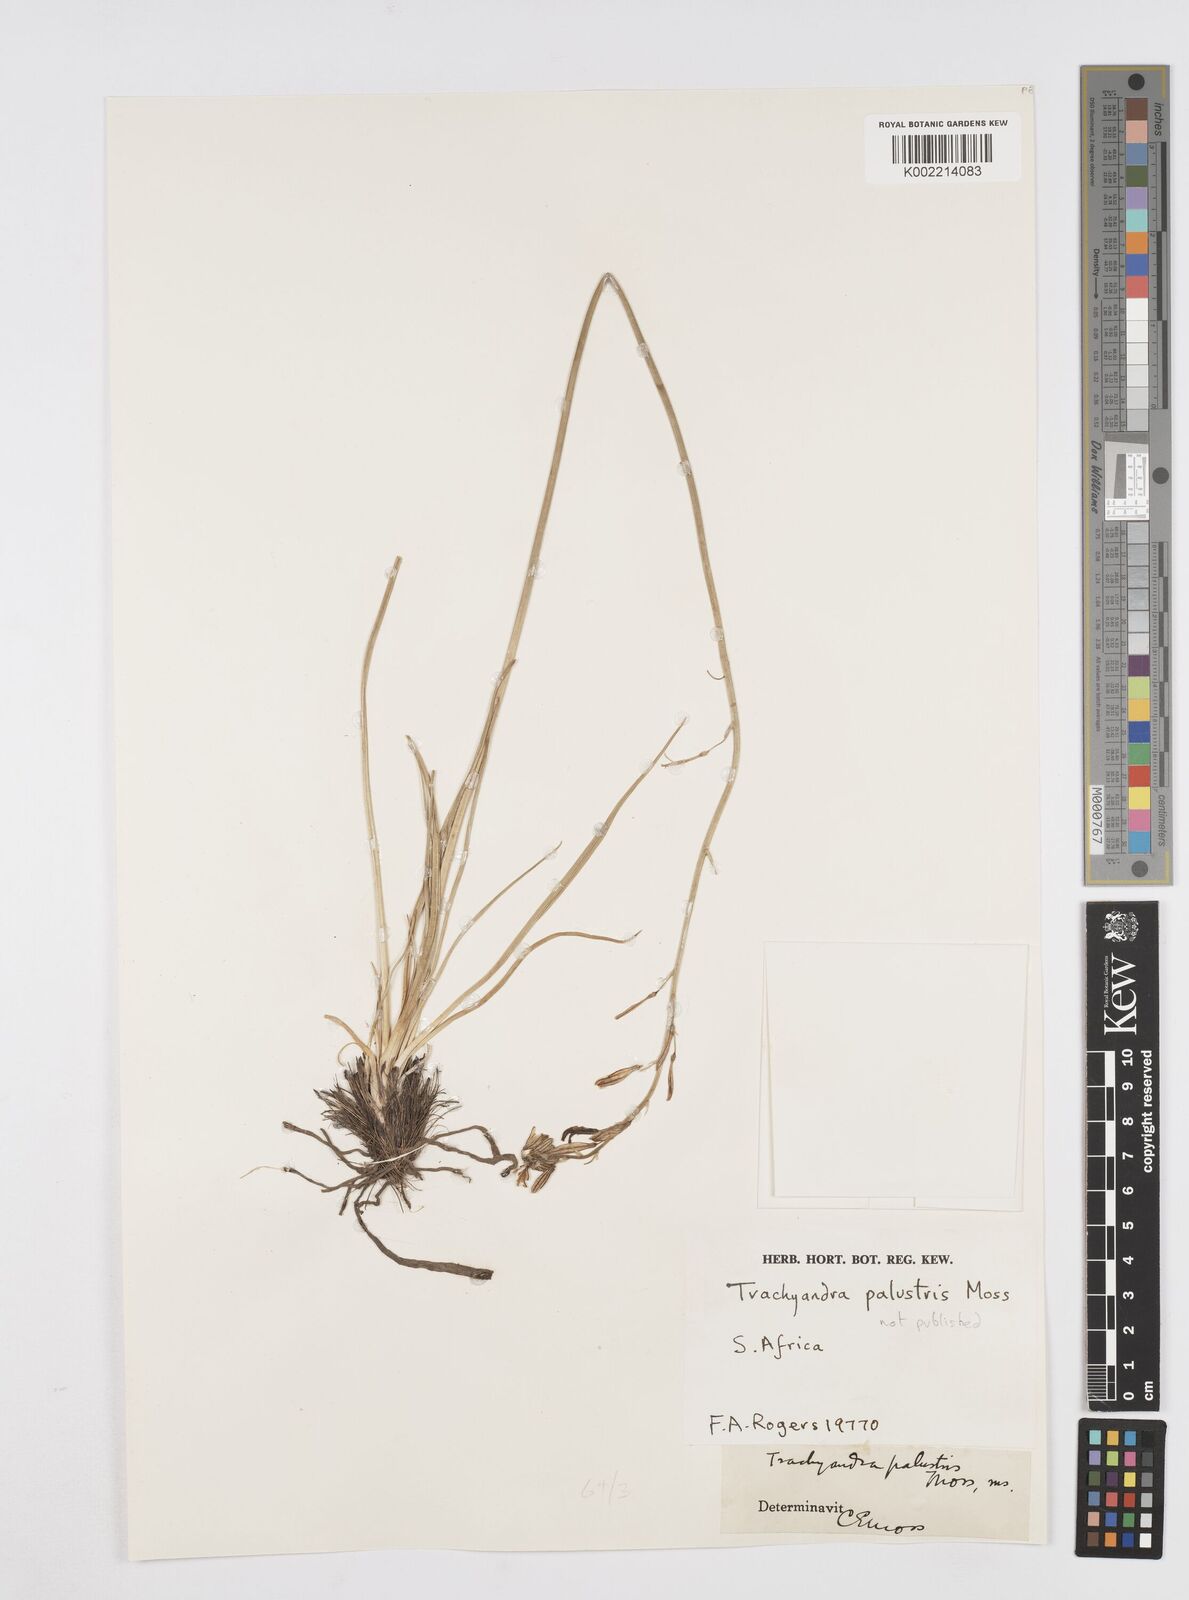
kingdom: Plantae
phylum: Tracheophyta
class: Liliopsida
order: Asparagales
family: Asphodelaceae
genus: Trachyandra
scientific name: Trachyandra
